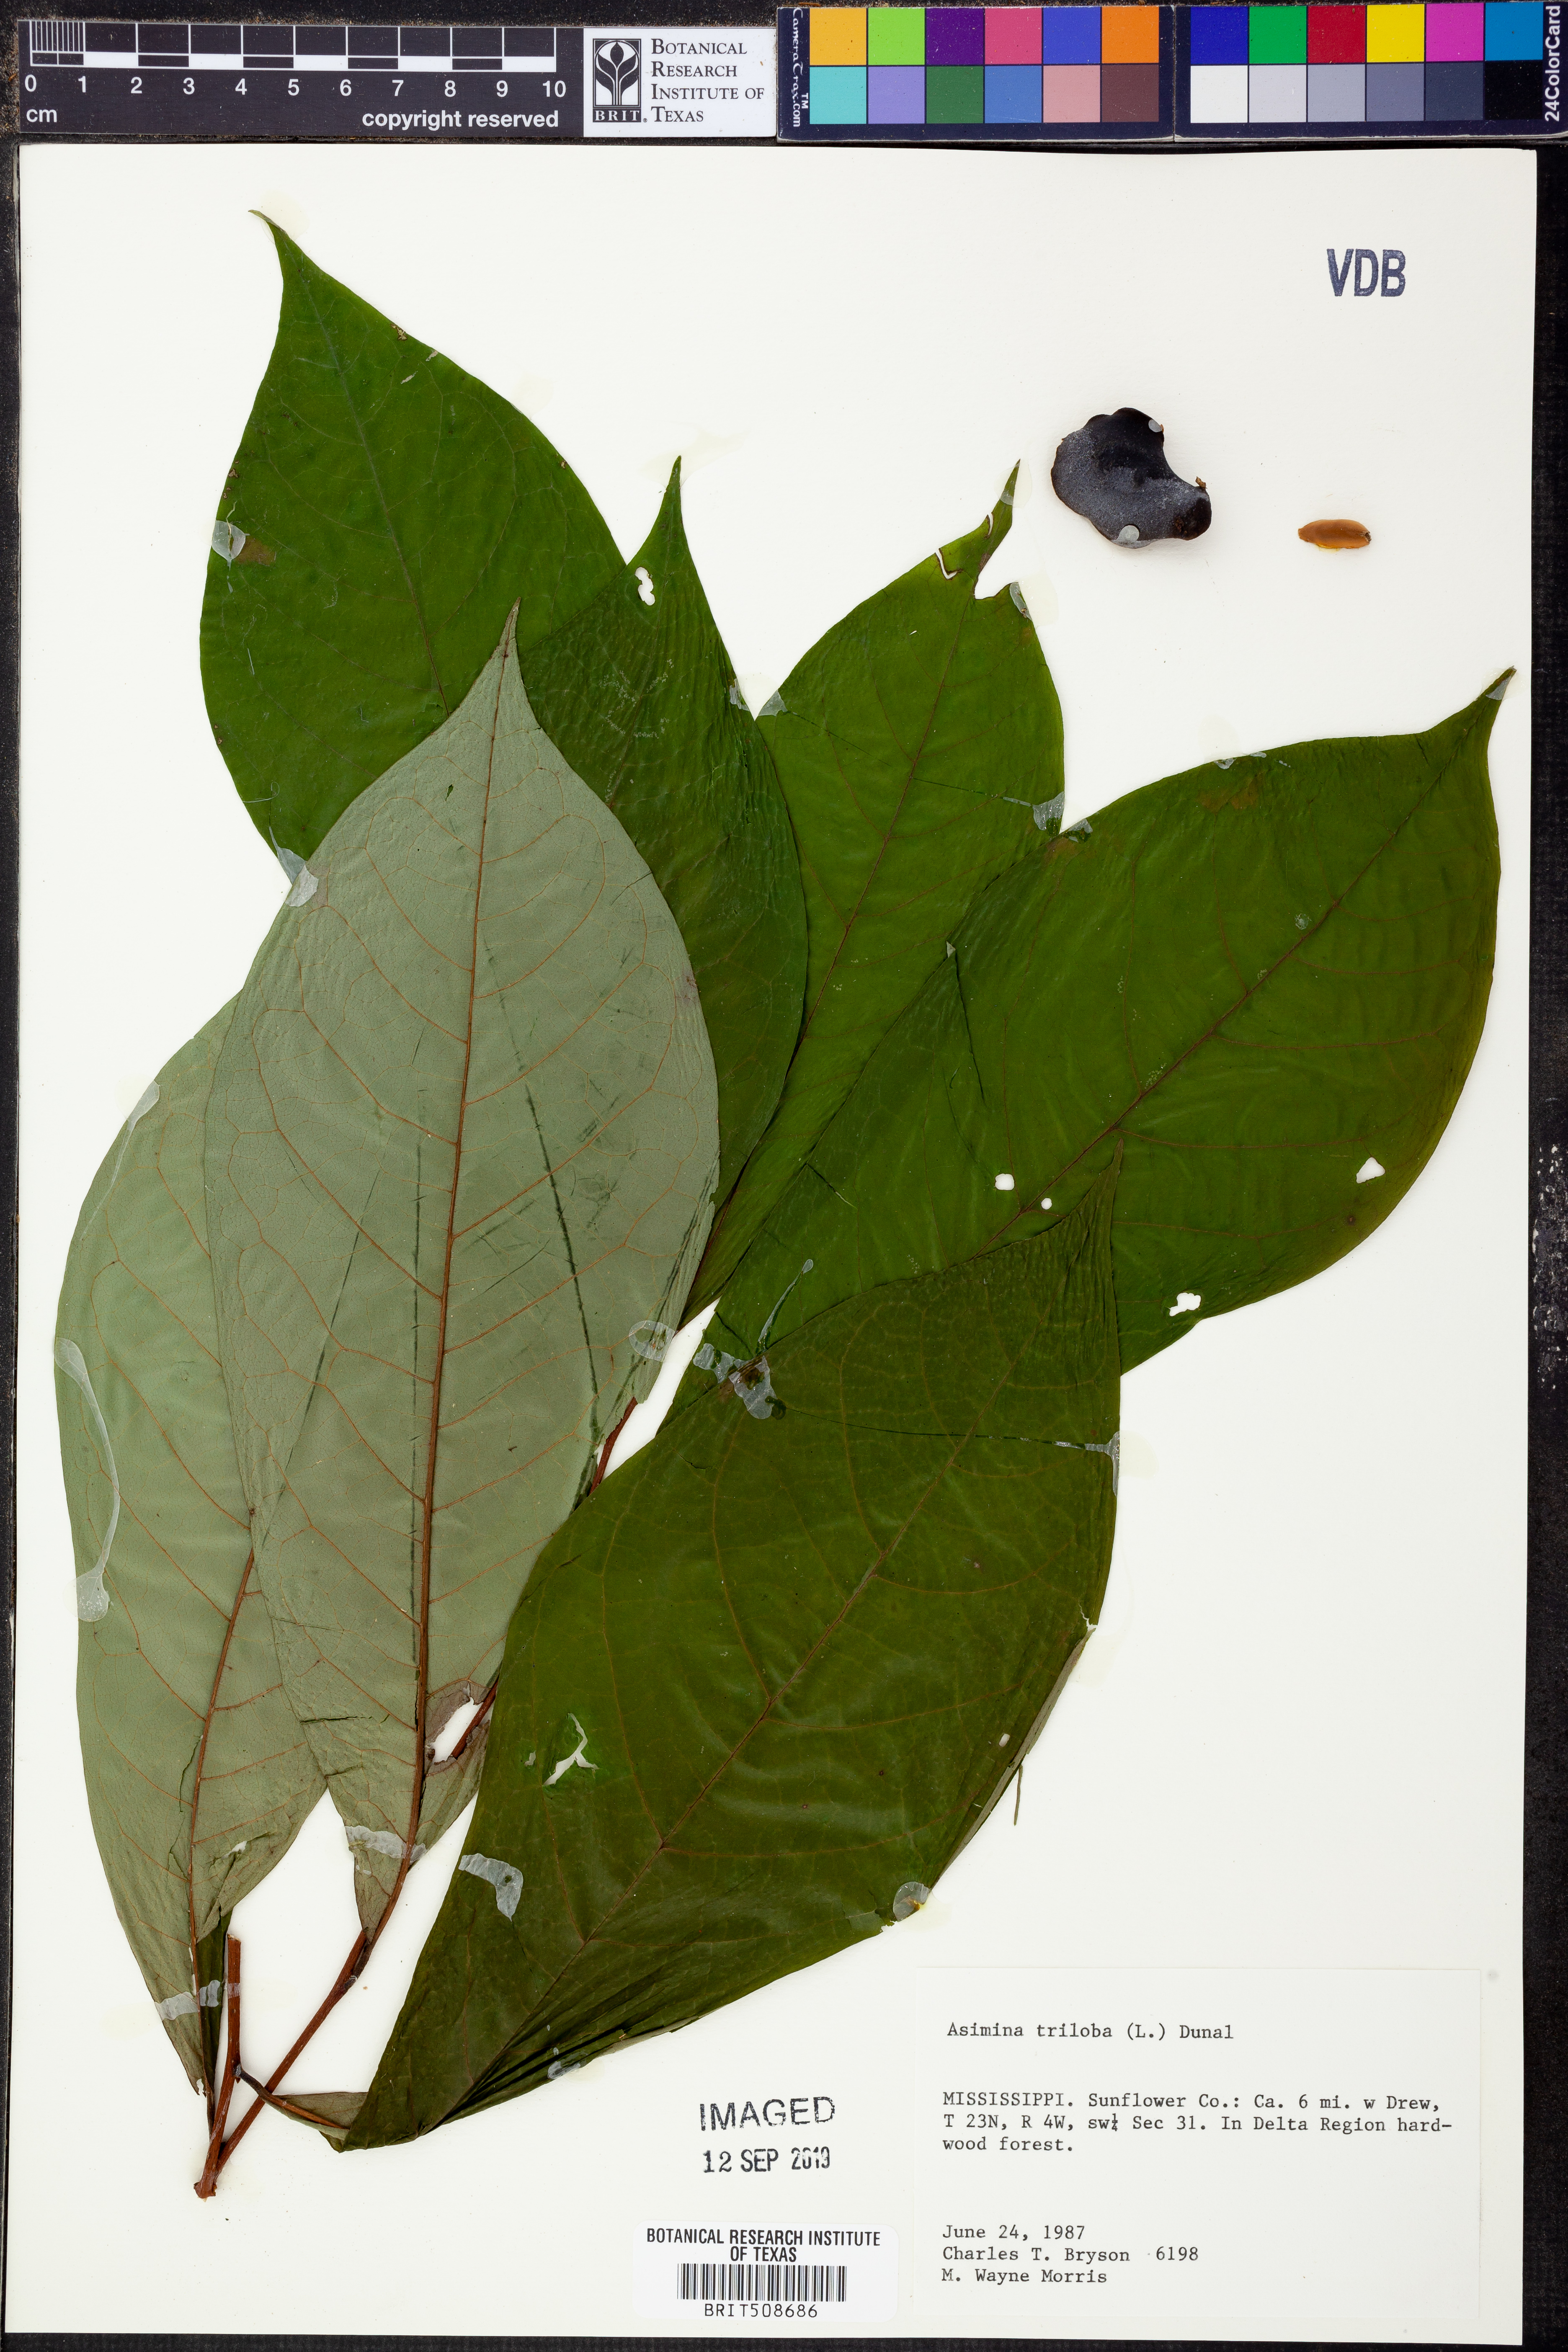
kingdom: Plantae
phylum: Tracheophyta
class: Magnoliopsida
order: Magnoliales
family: Annonaceae
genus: Asimina
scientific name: Asimina triloba
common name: Dog-banana
